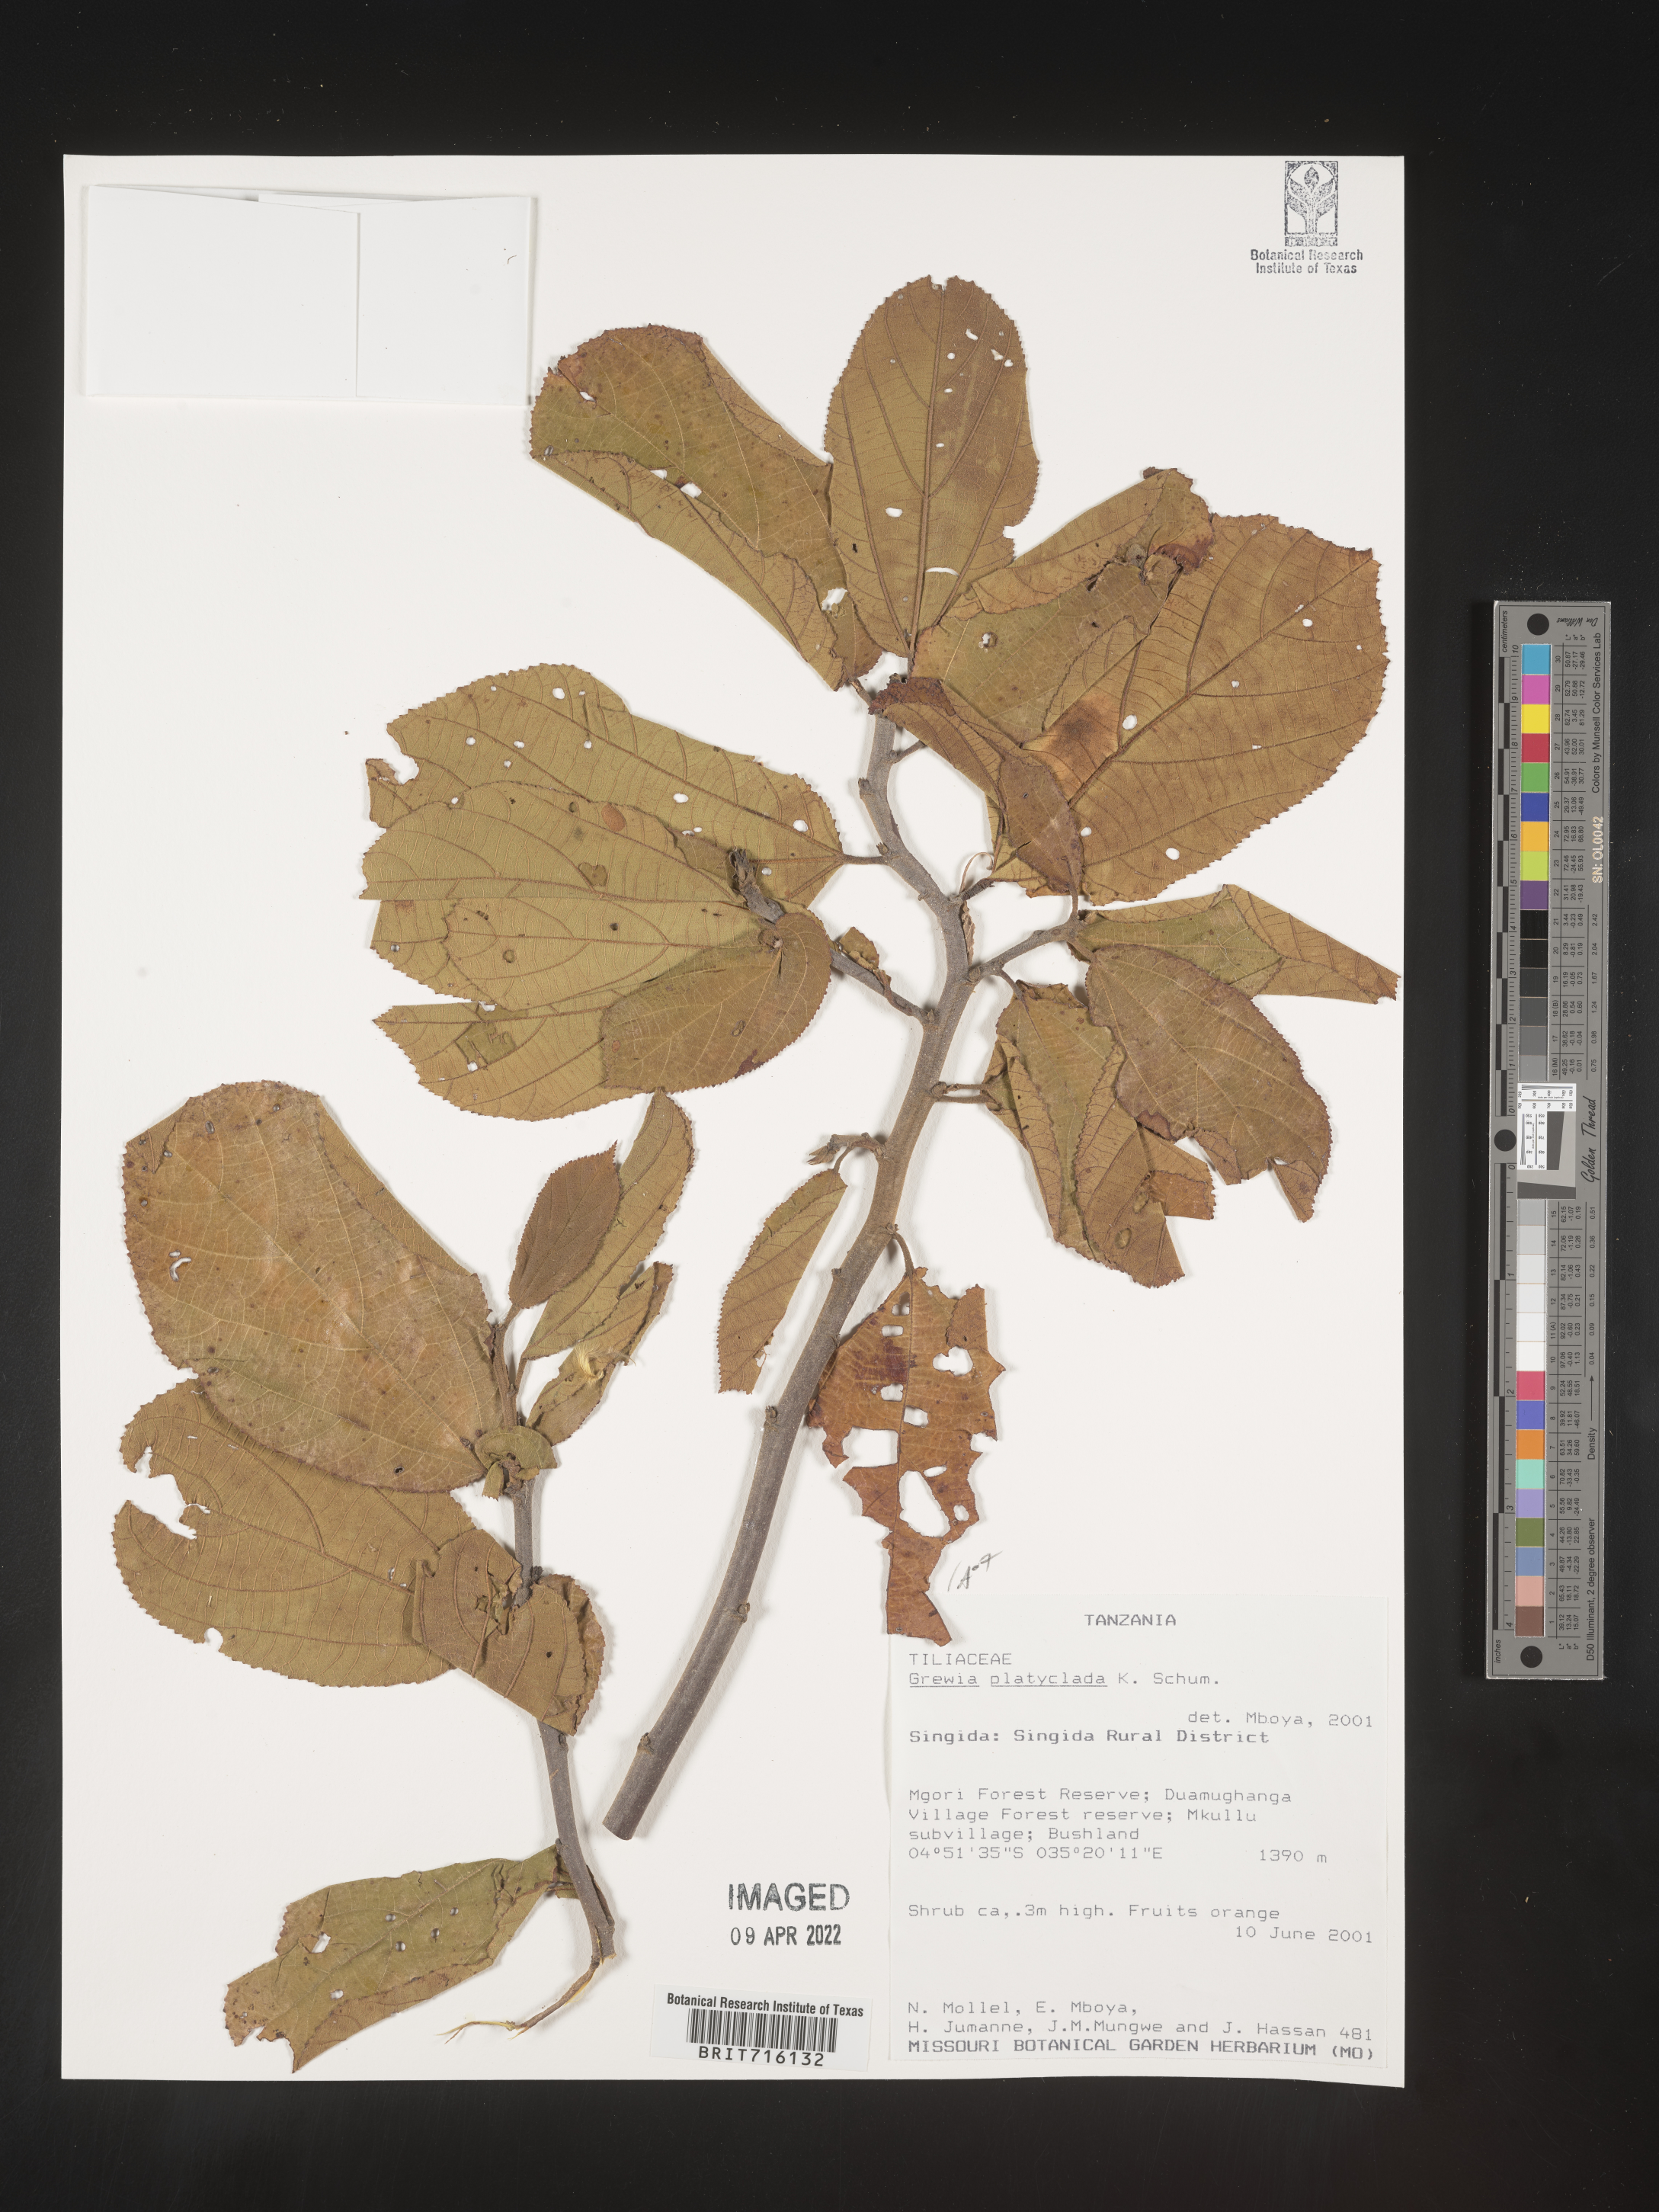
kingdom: Plantae
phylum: Tracheophyta
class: Magnoliopsida
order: Malvales
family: Malvaceae
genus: Grewia
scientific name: Grewia
